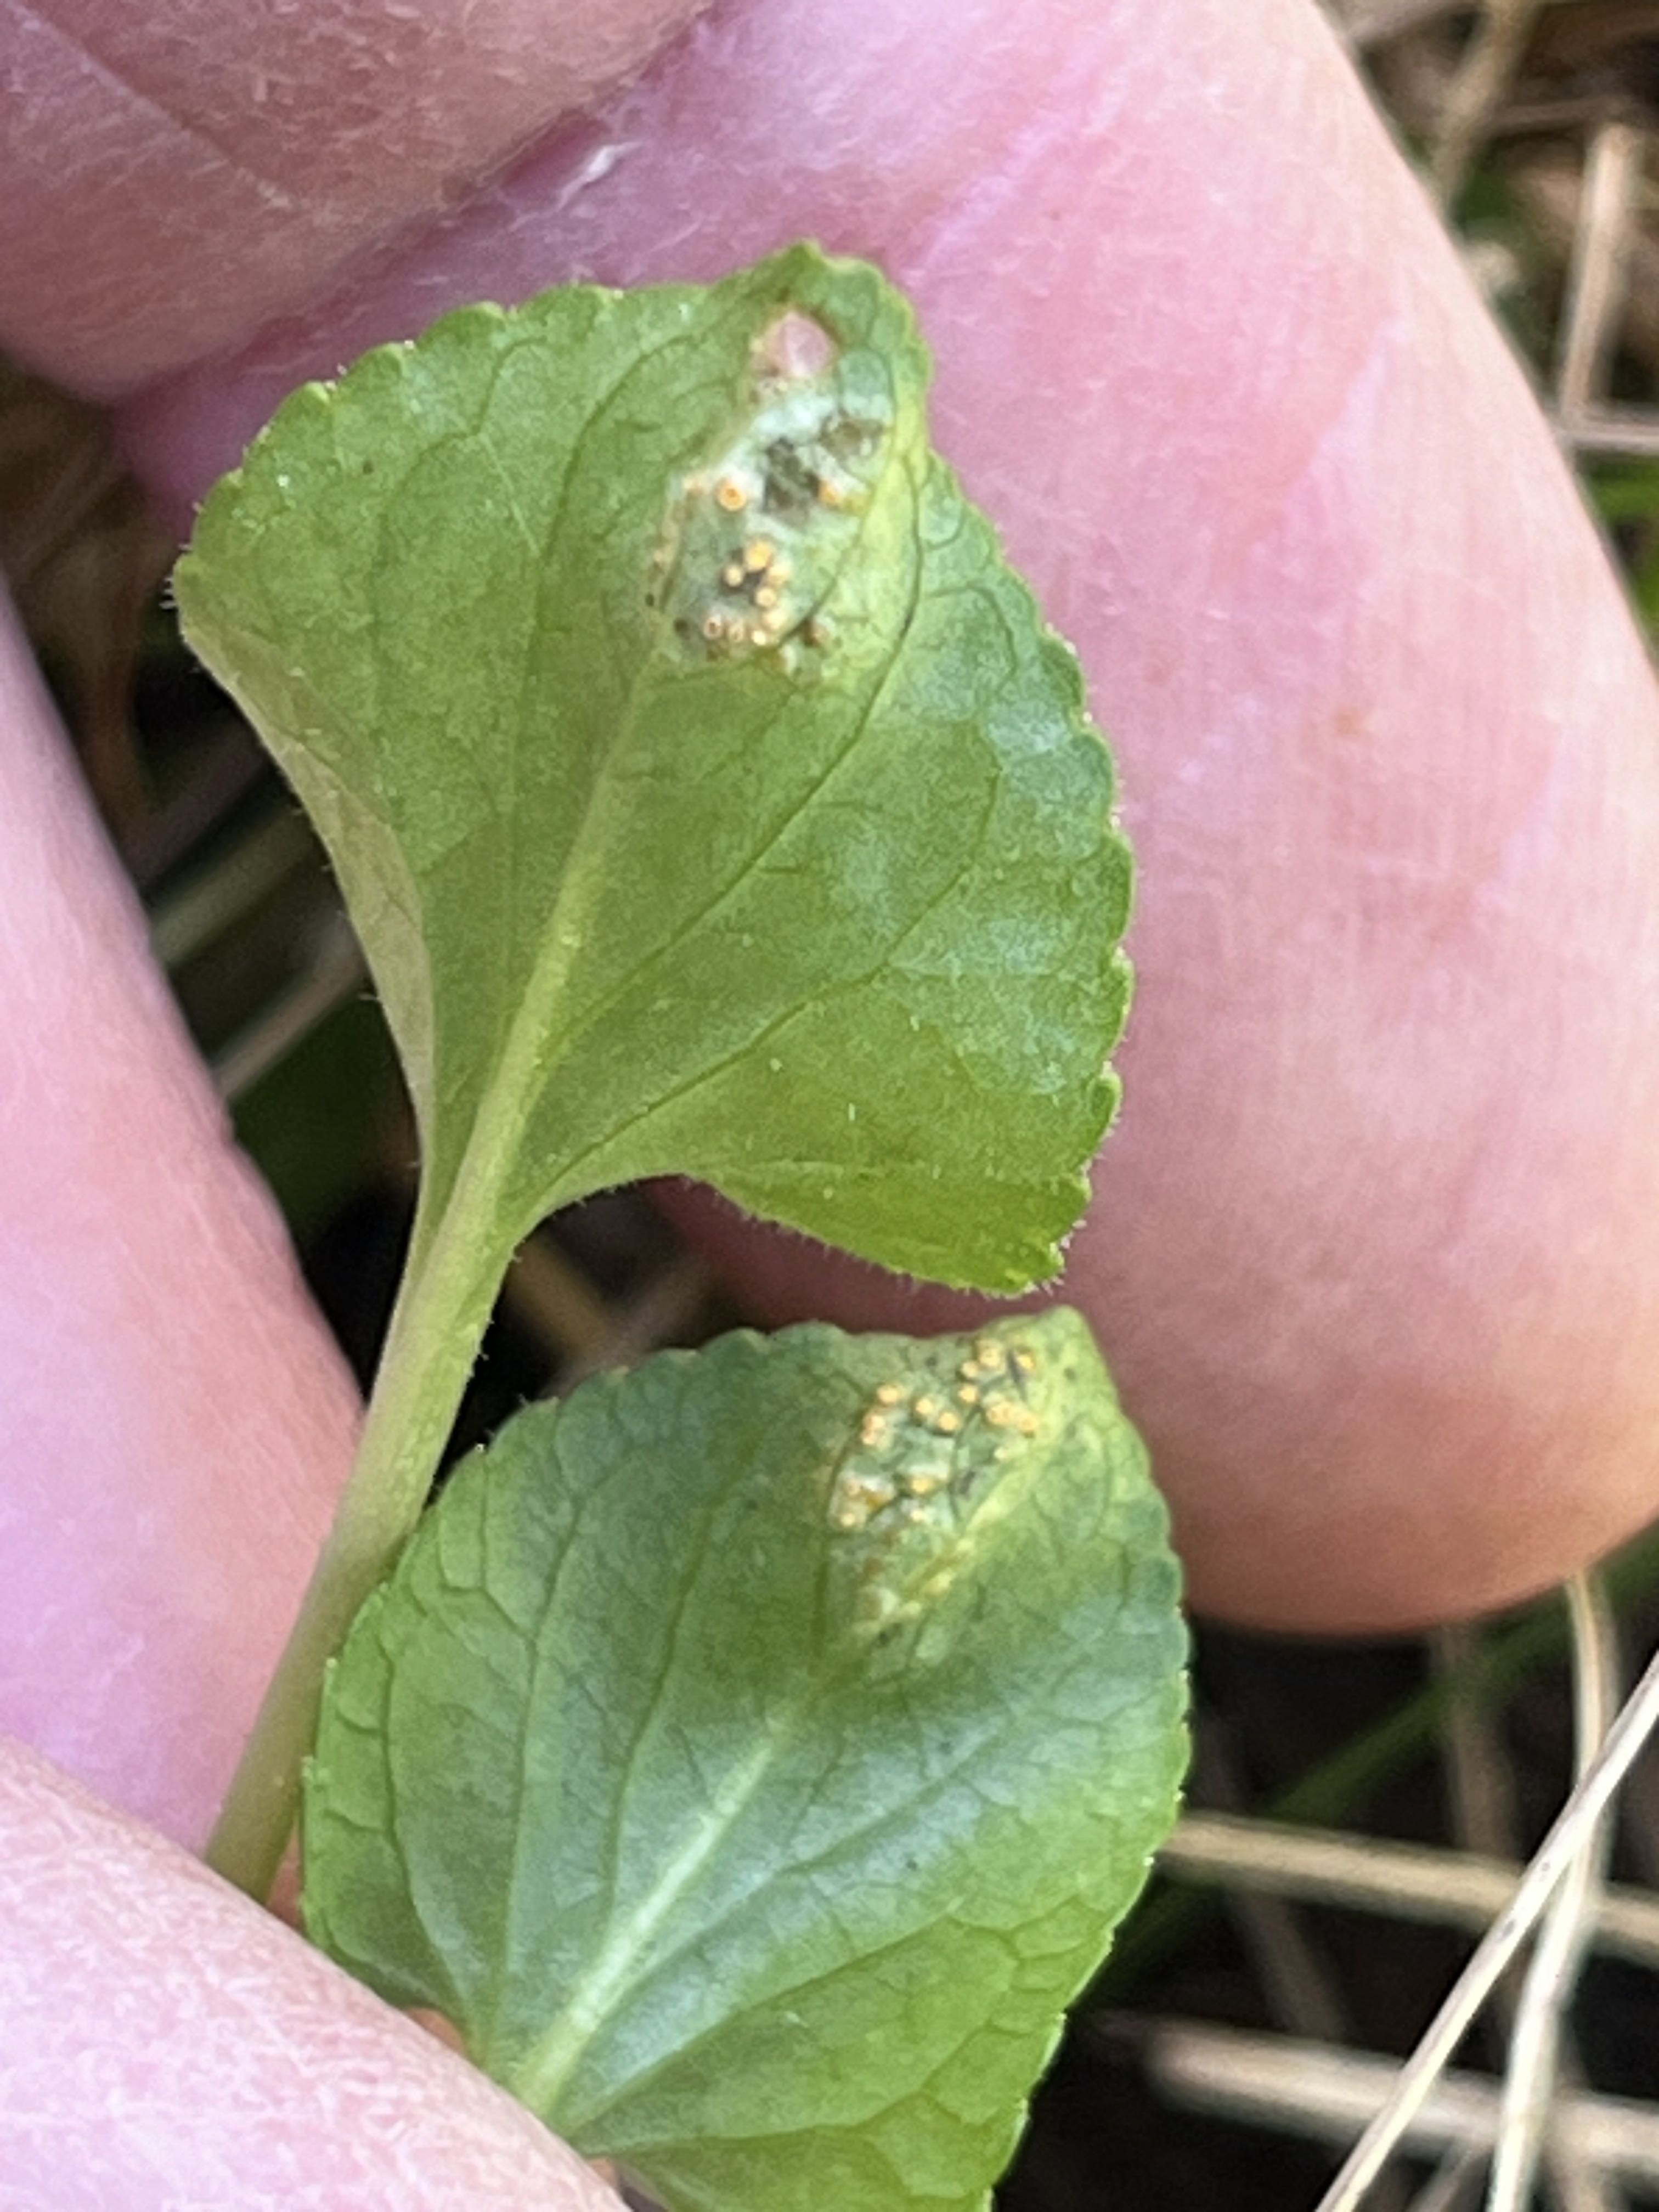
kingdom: Fungi
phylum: Basidiomycota
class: Pucciniomycetes
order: Pucciniales
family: Pucciniaceae
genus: Puccinia
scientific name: Puccinia violae
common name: viol-tvecellerust
